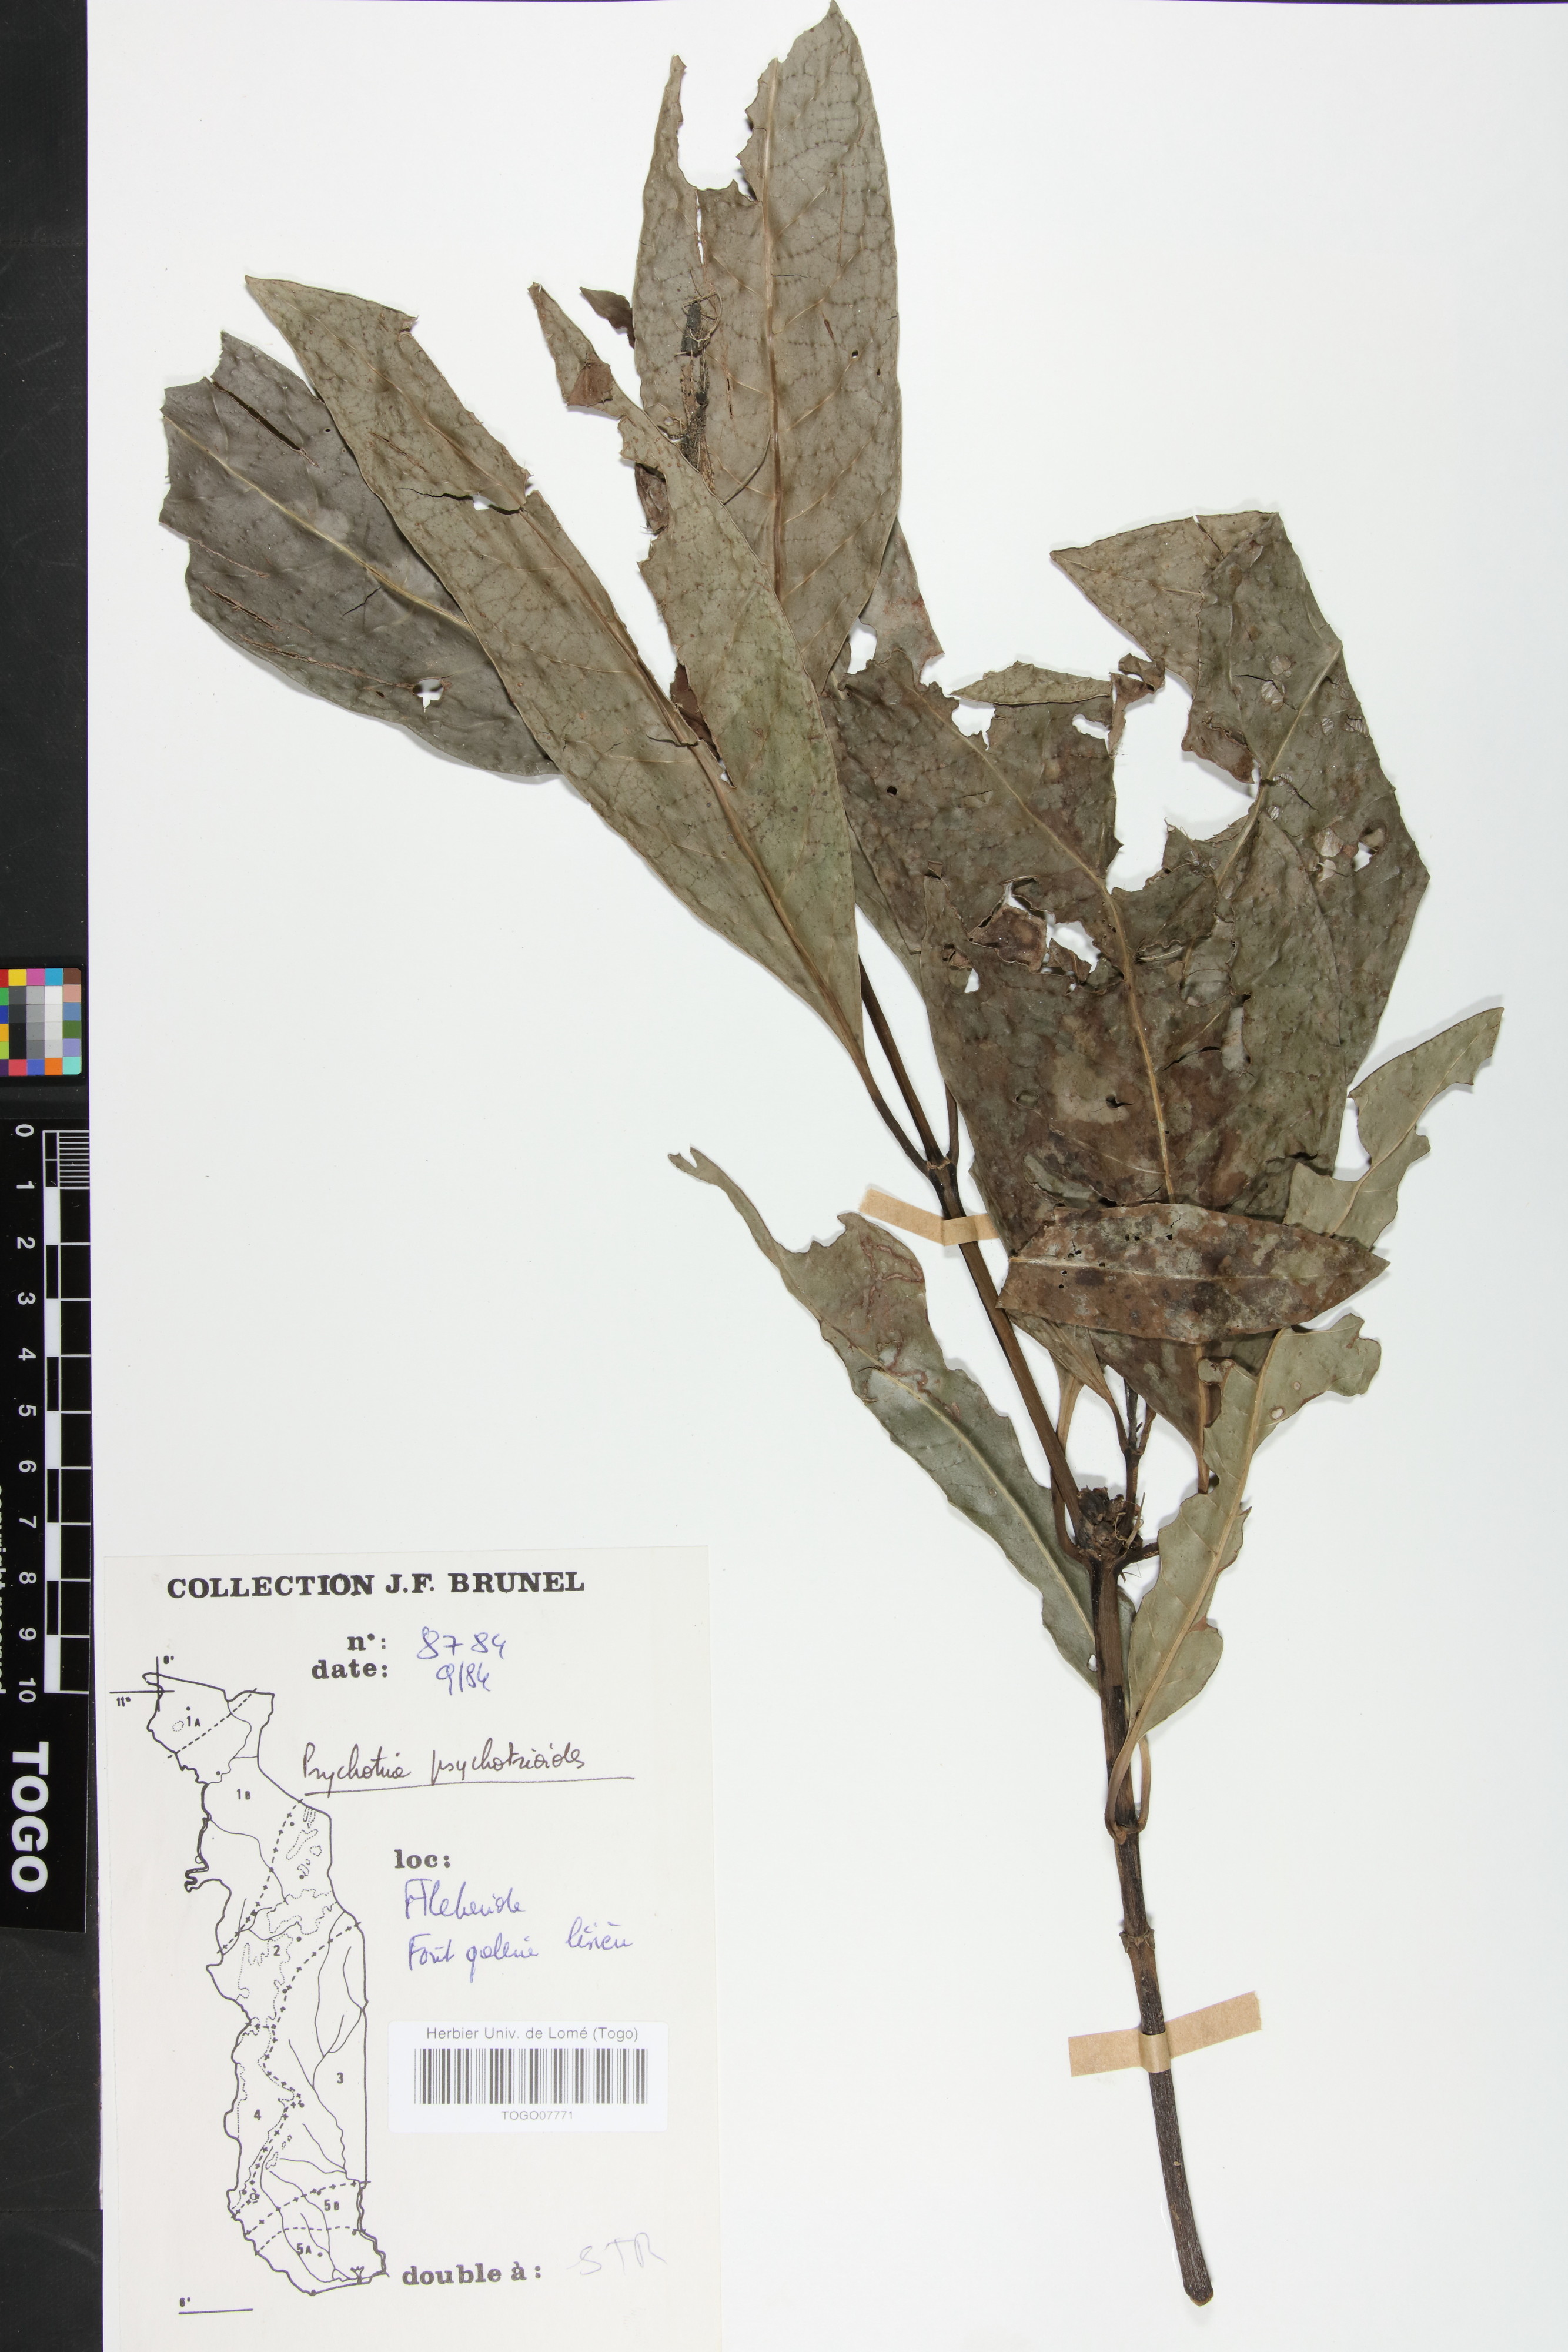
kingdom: Plantae
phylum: Tracheophyta
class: Magnoliopsida
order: Gentianales
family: Rubiaceae
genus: Psychotria
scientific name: Psychotria psychotrioides
